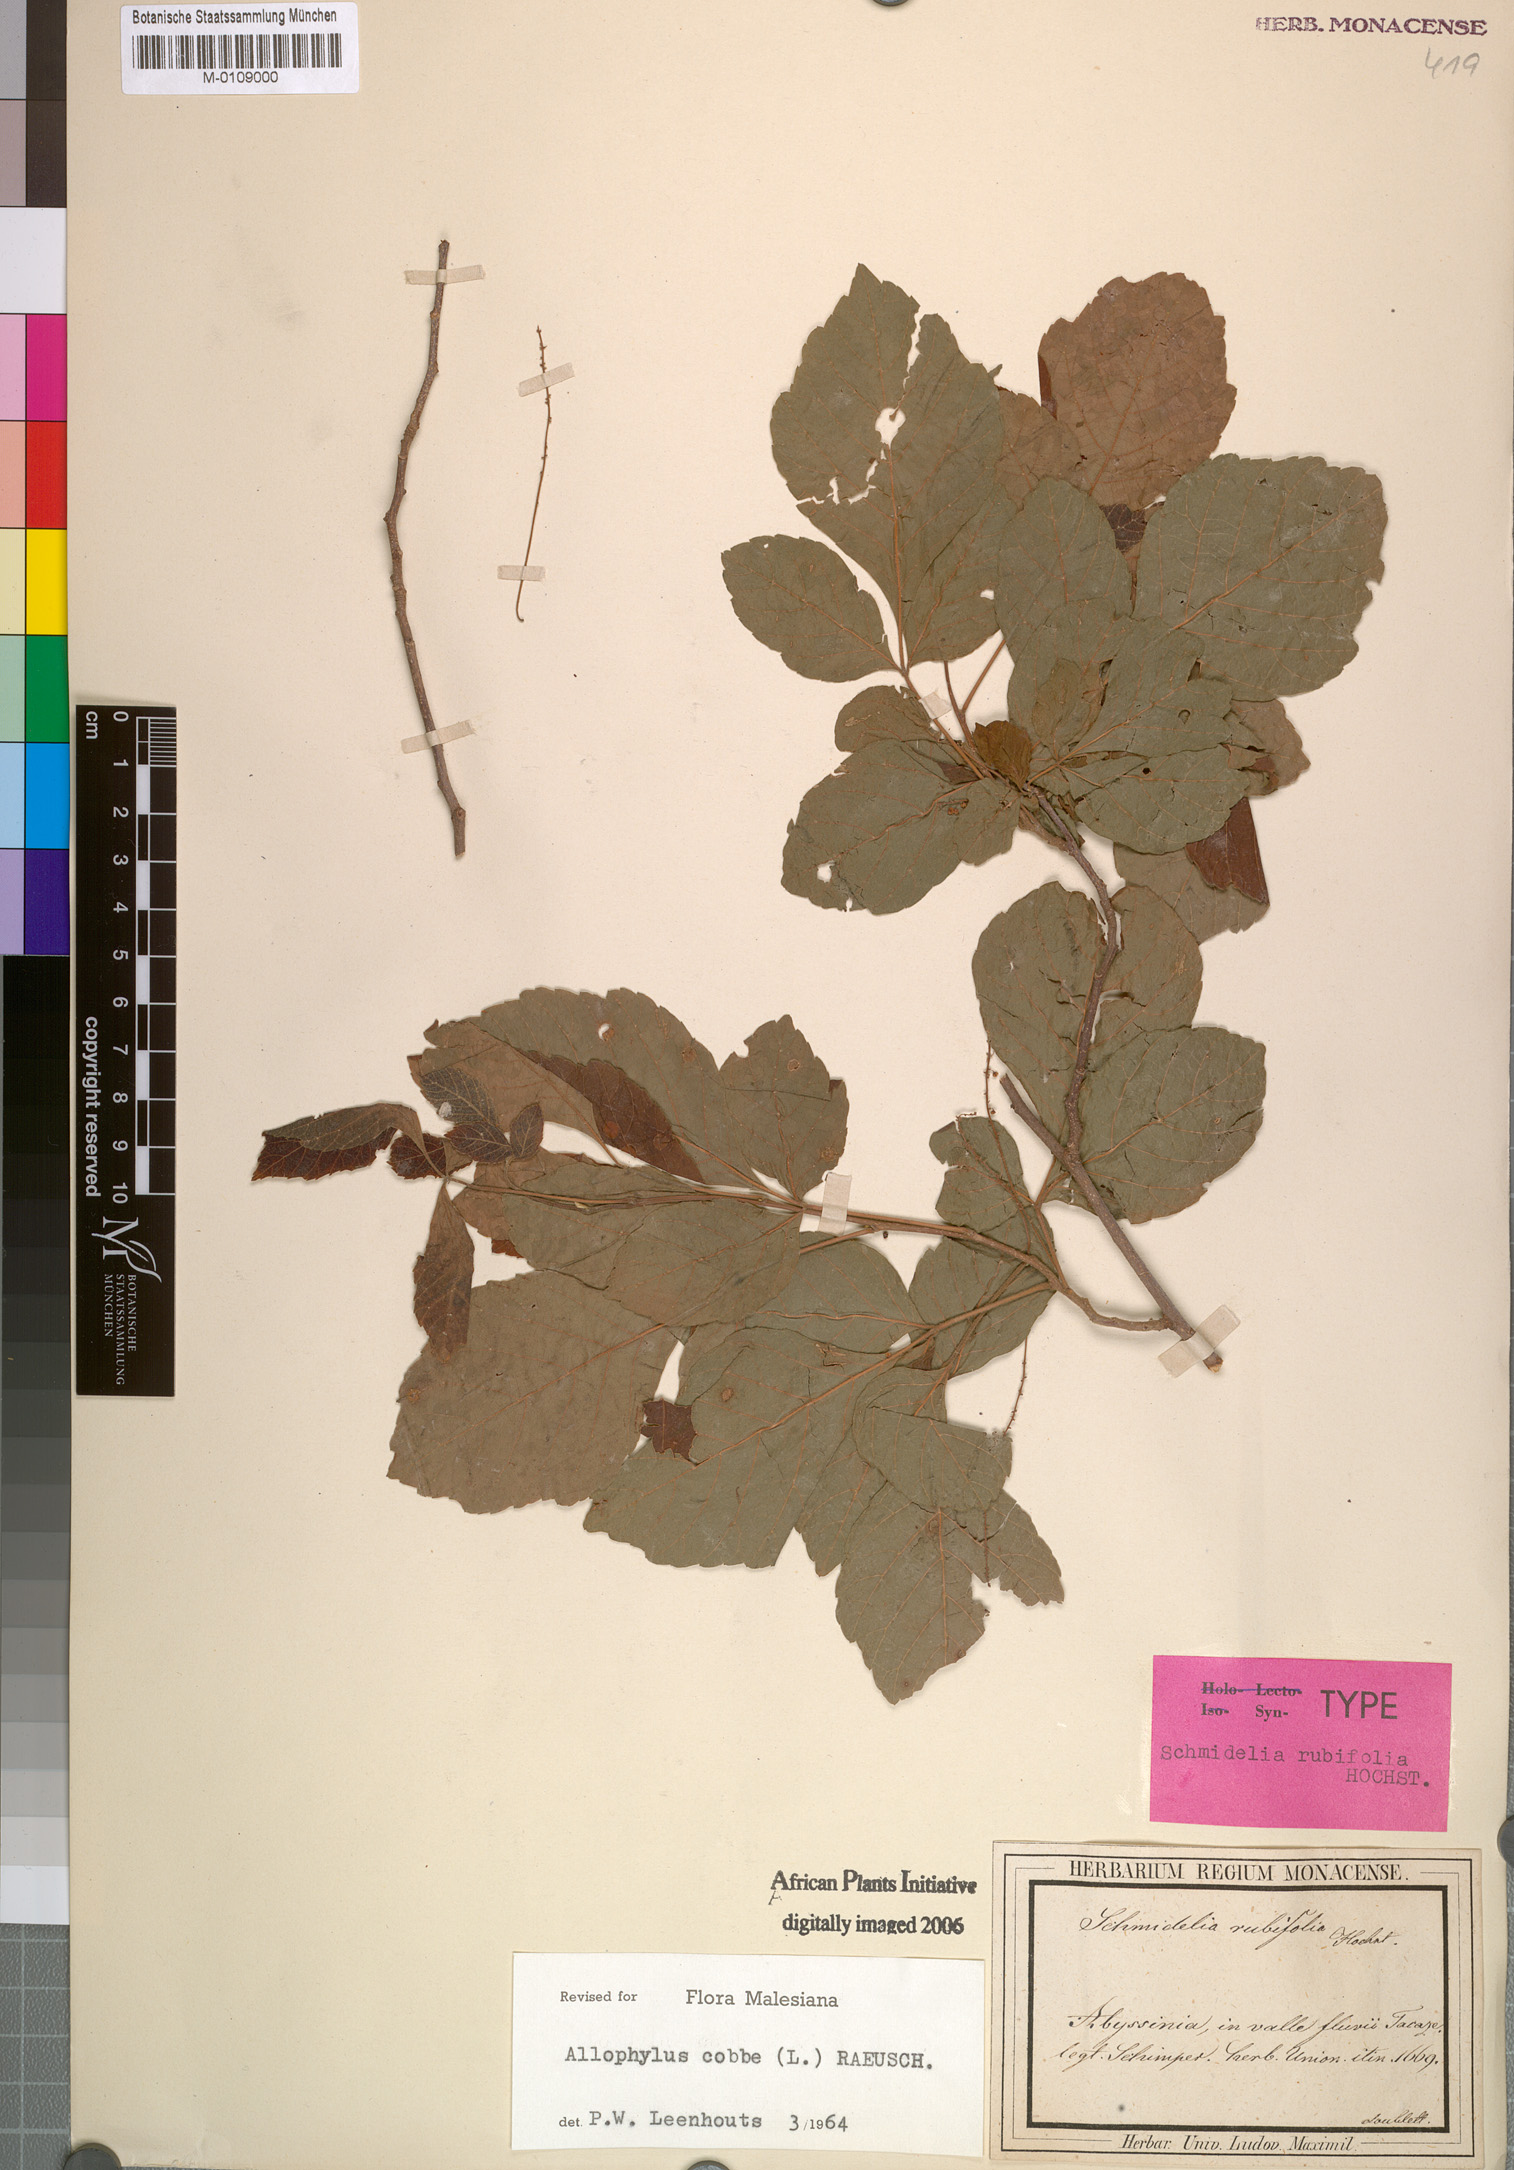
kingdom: Plantae
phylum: Tracheophyta
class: Magnoliopsida
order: Sapindales
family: Sapindaceae
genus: Allophylus
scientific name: Allophylus rubifolius
